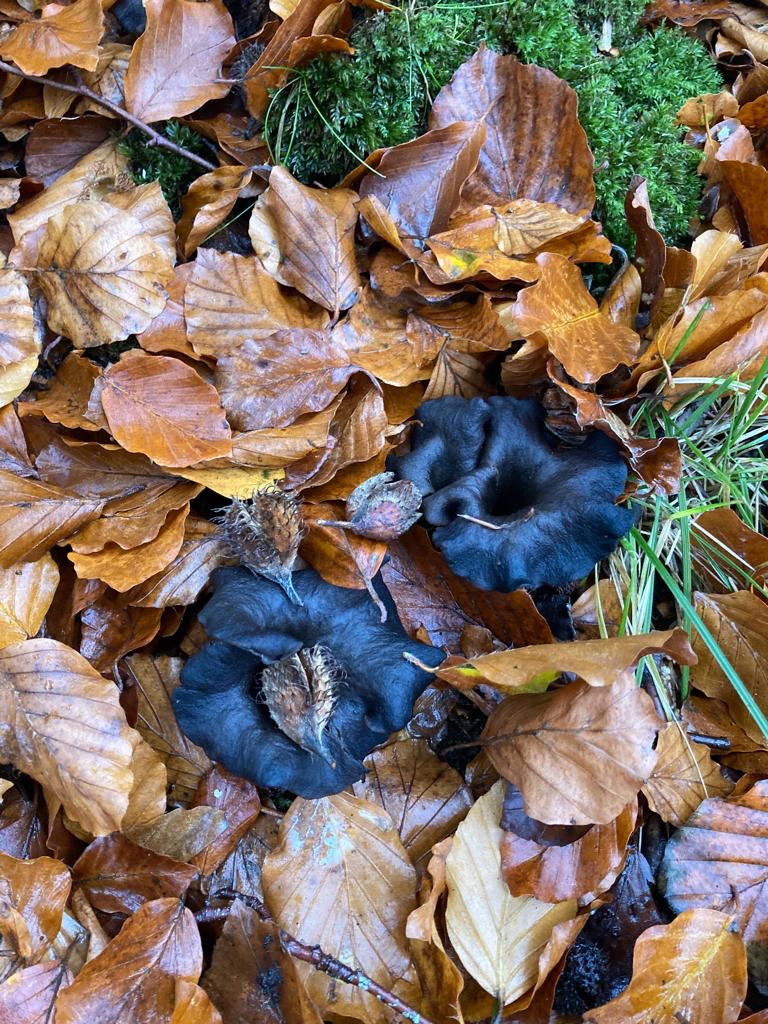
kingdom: Fungi
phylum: Basidiomycota
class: Agaricomycetes
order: Cantharellales
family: Hydnaceae
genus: Craterellus
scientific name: Craterellus cornucopioides
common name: trompetsvamp
